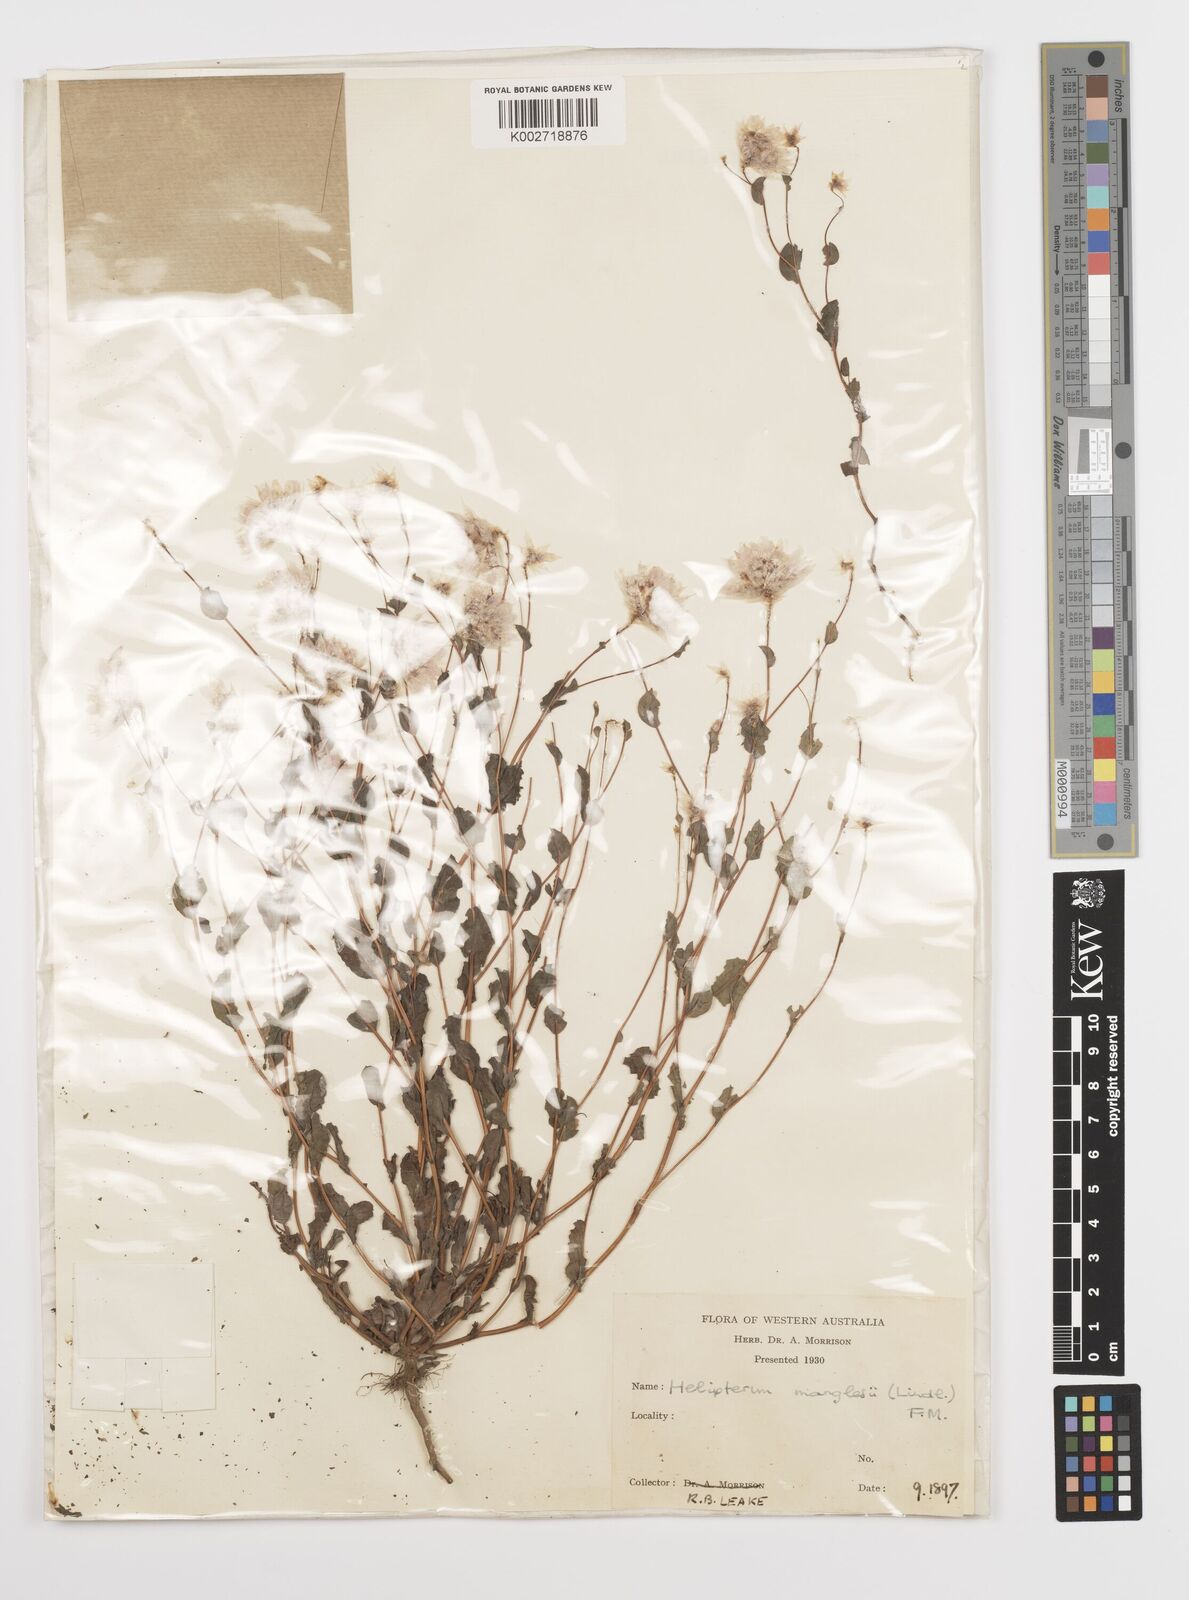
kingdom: Plantae
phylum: Tracheophyta
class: Magnoliopsida
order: Asterales
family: Asteraceae
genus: Rhodanthe
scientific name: Rhodanthe manglesii
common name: Pink sunray
